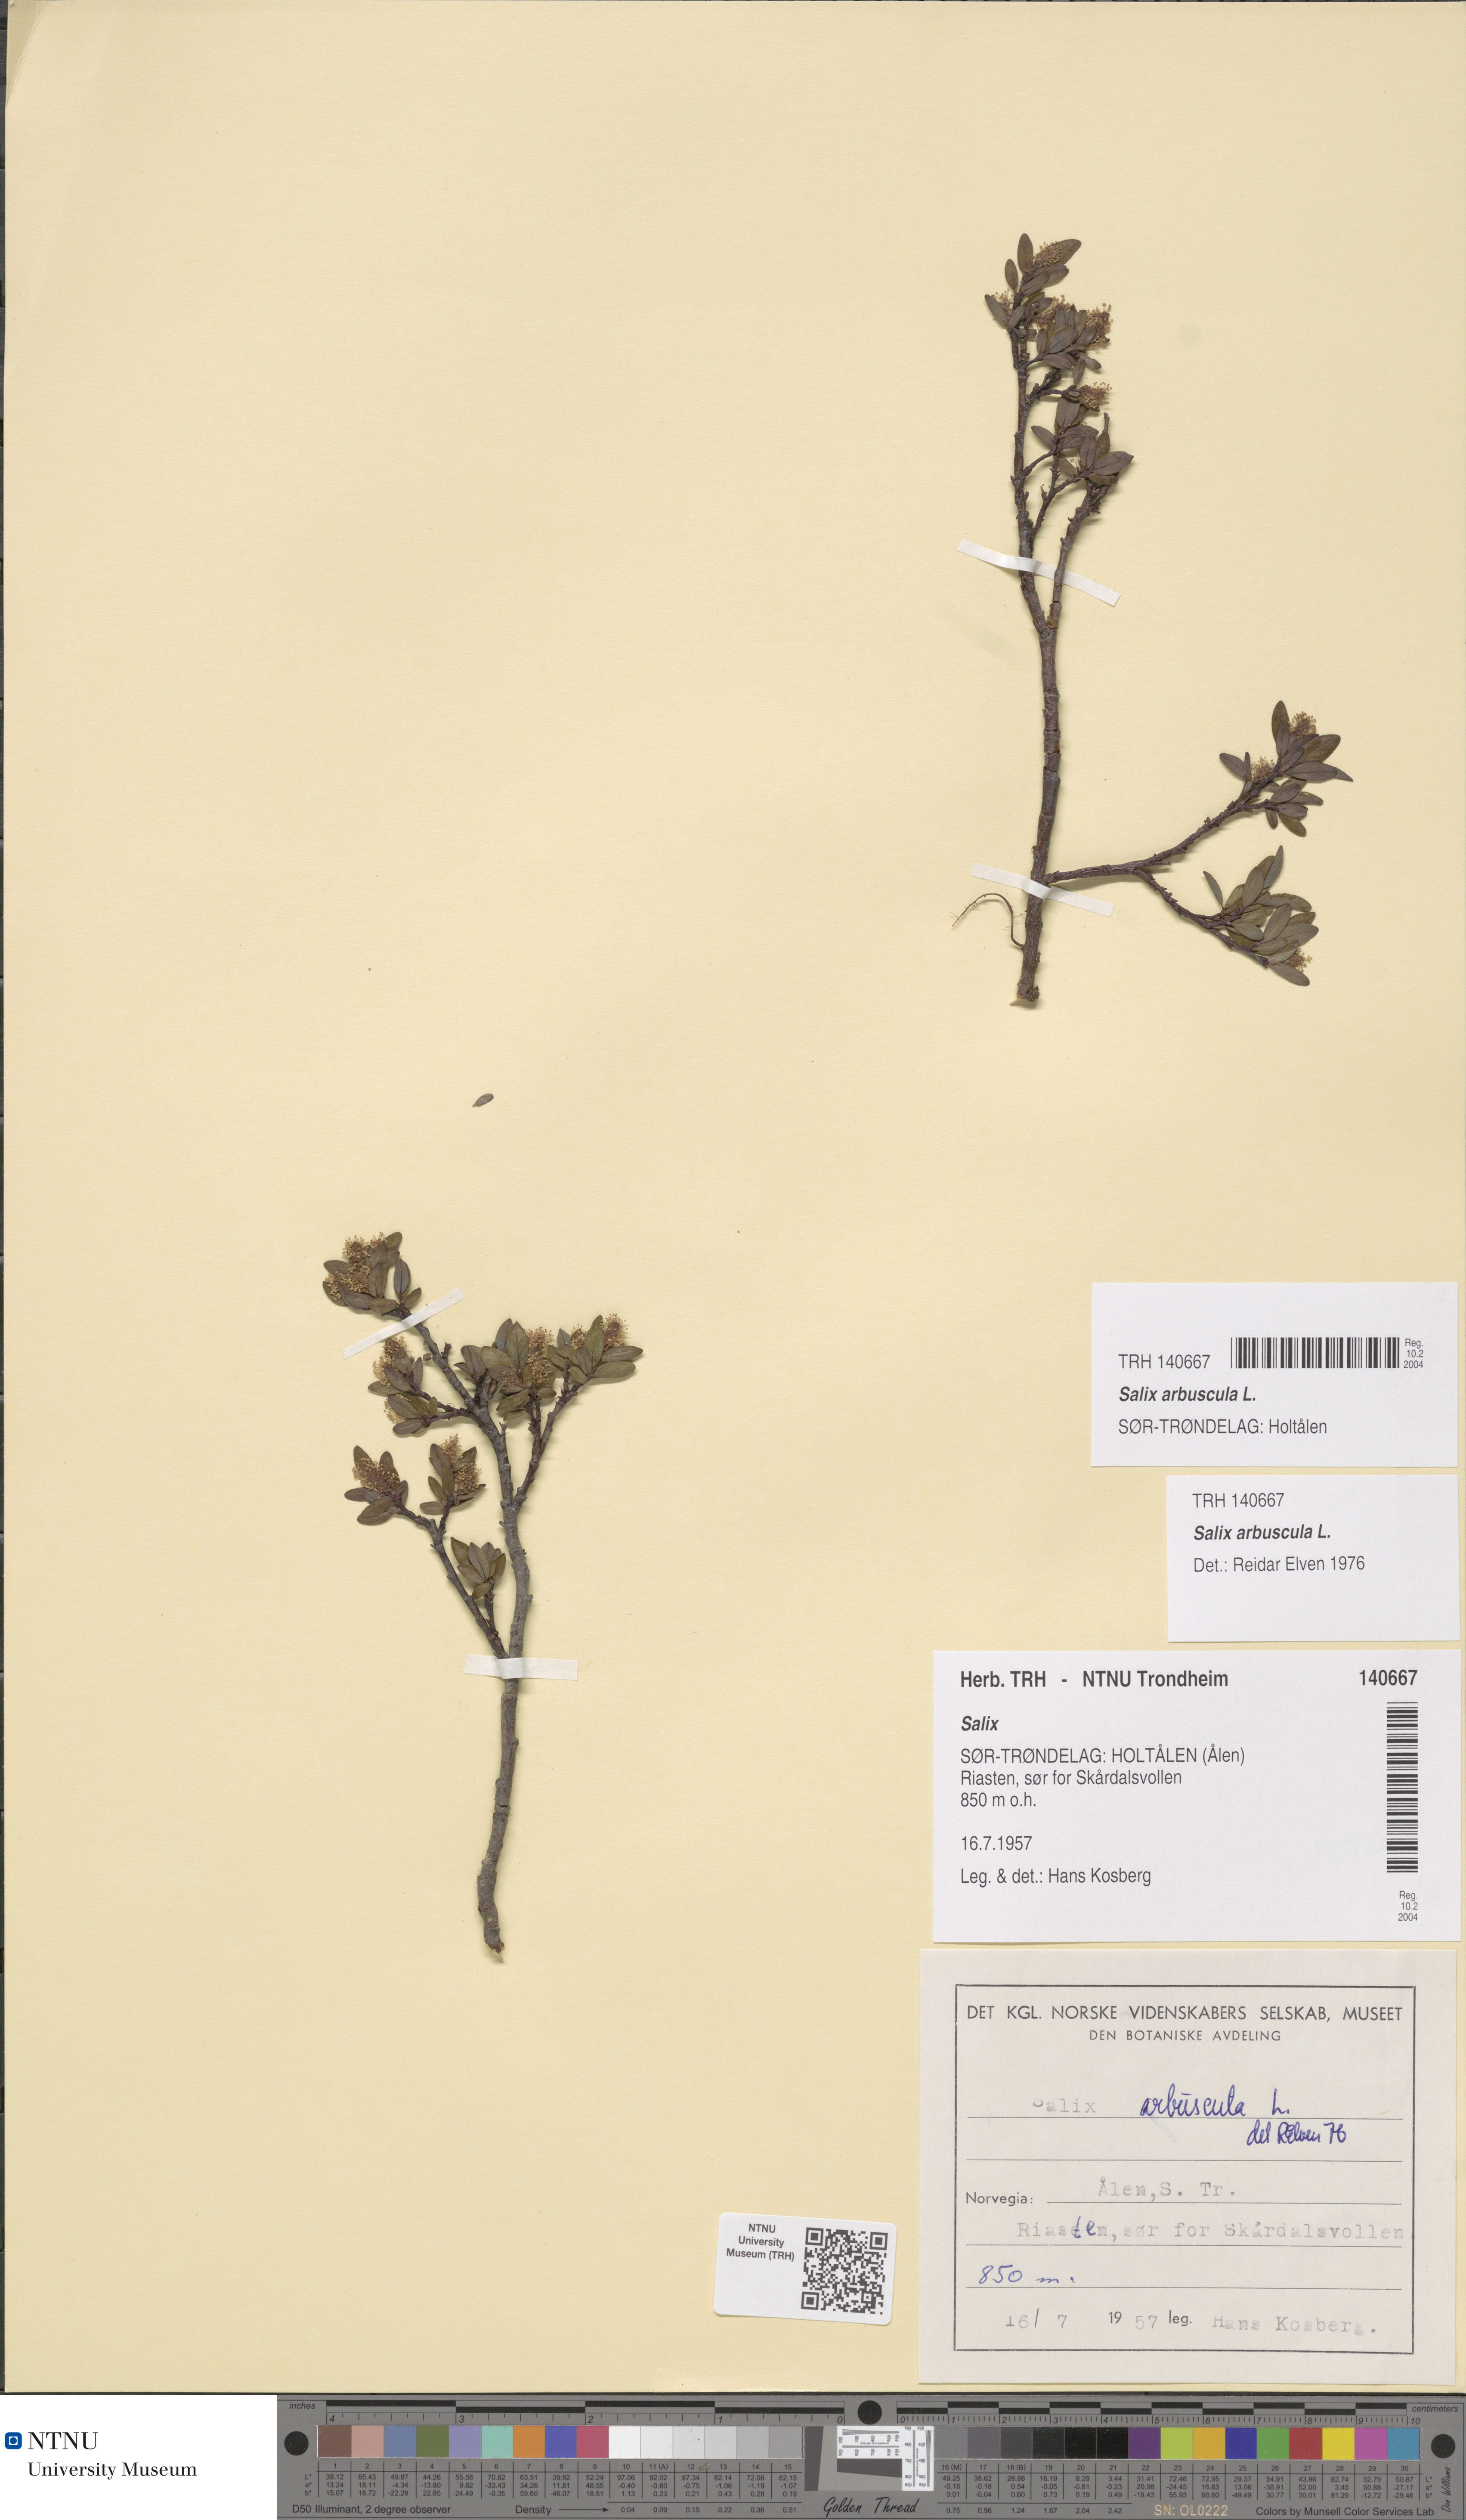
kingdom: Plantae
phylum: Tracheophyta
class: Magnoliopsida
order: Malpighiales
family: Salicaceae
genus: Salix
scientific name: Salix arbuscula
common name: Mountain willow
